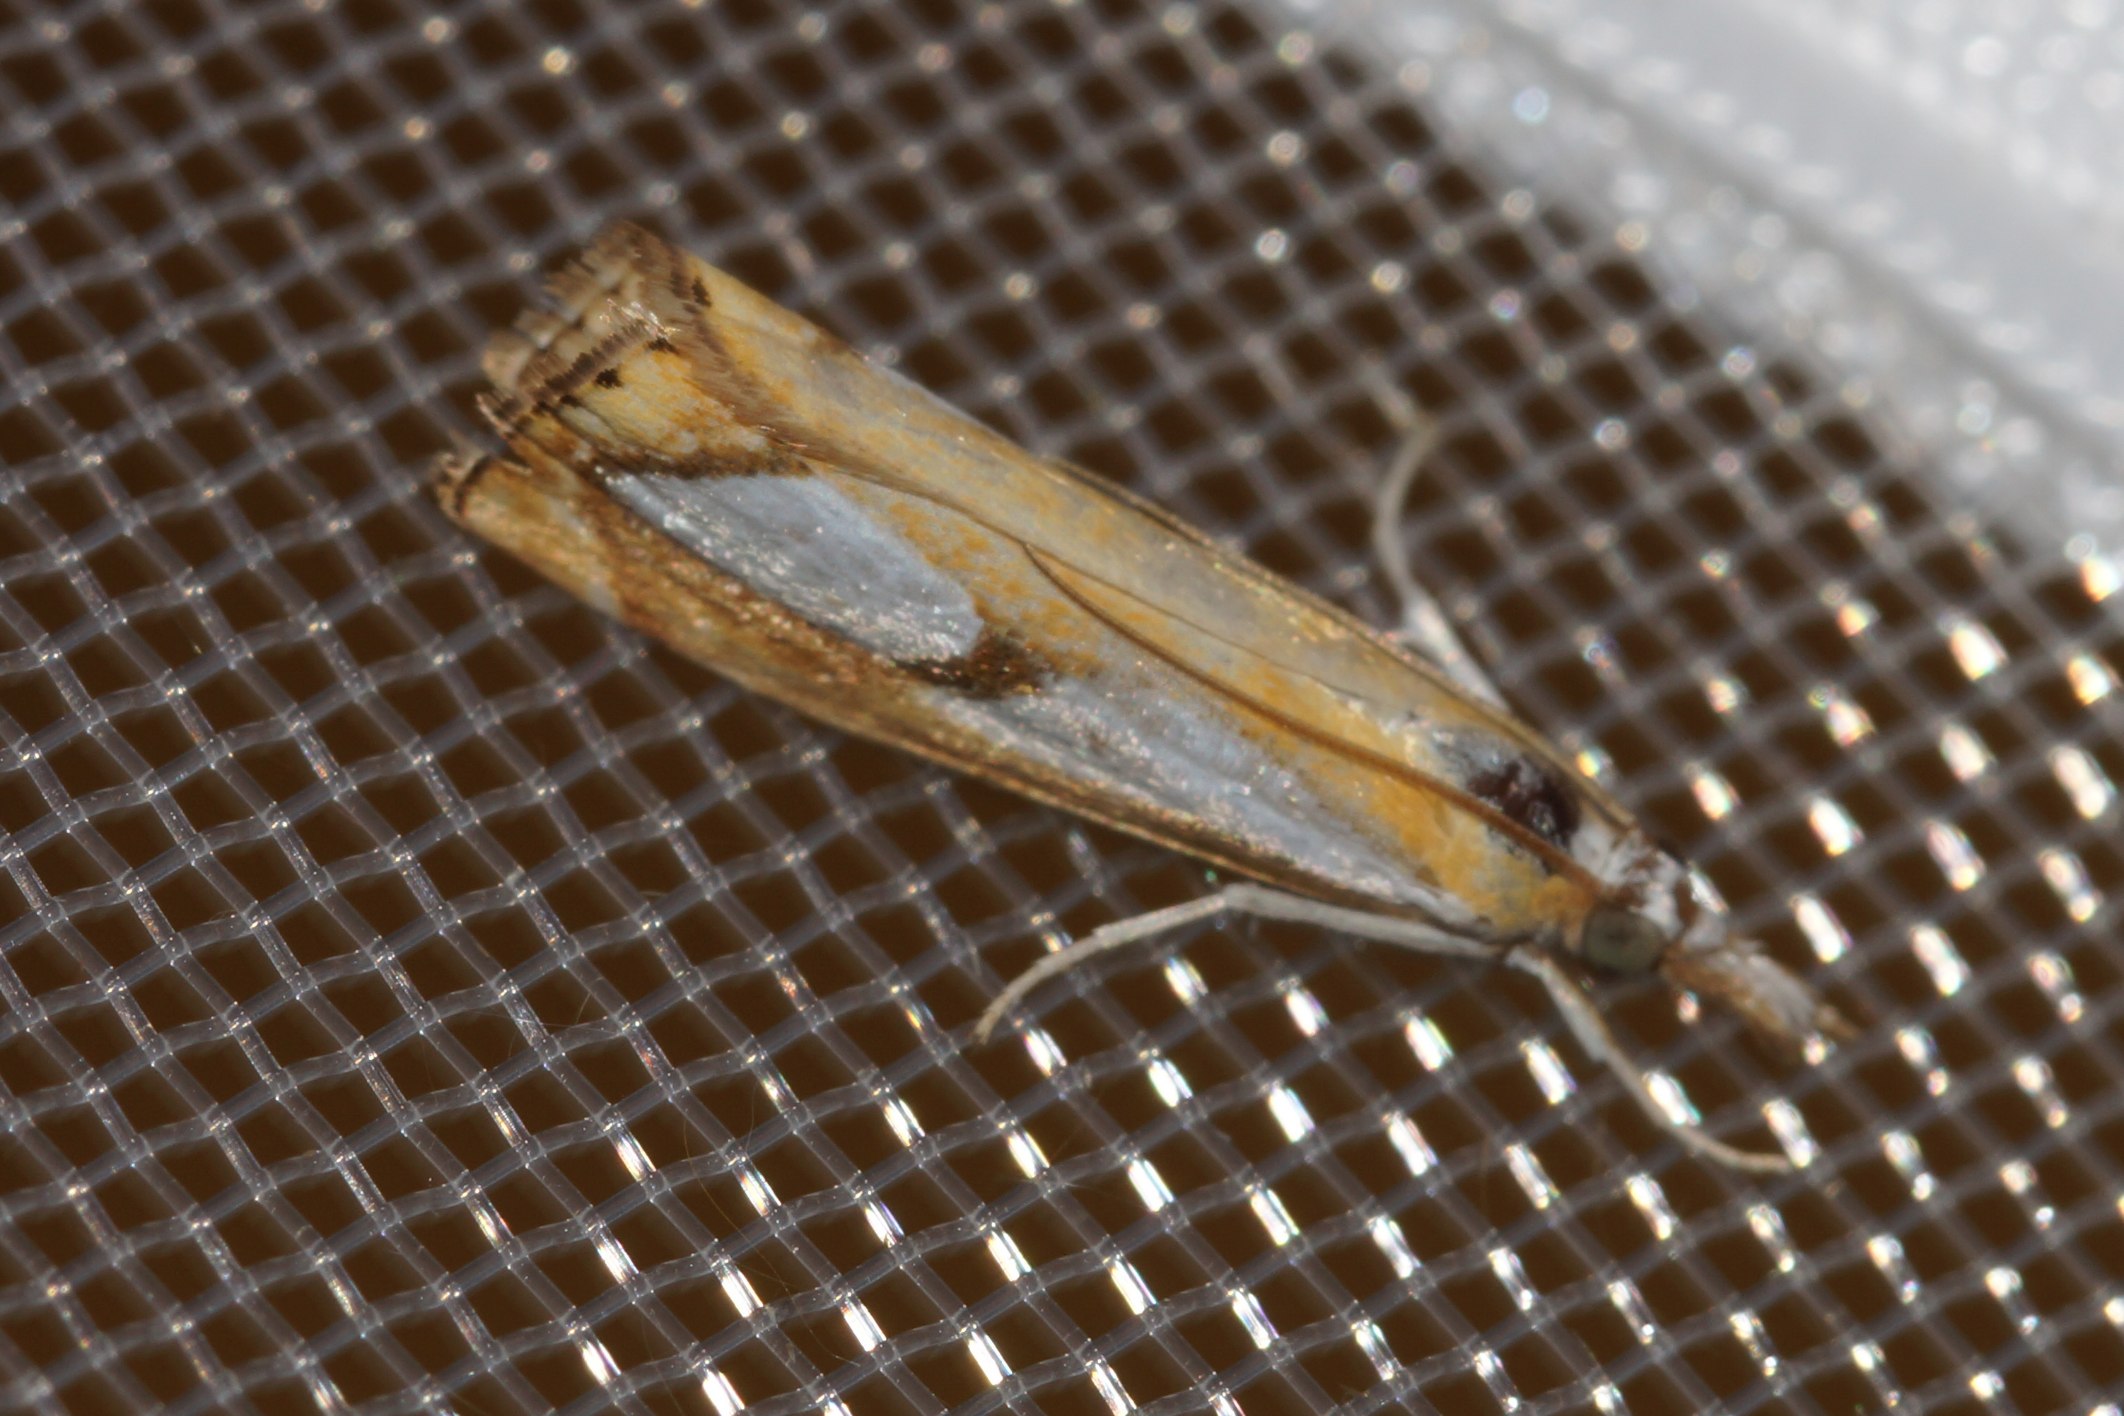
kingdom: Animalia
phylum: Arthropoda
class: Insecta
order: Lepidoptera
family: Crambidae
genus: Catoptria
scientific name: Catoptria pinella
